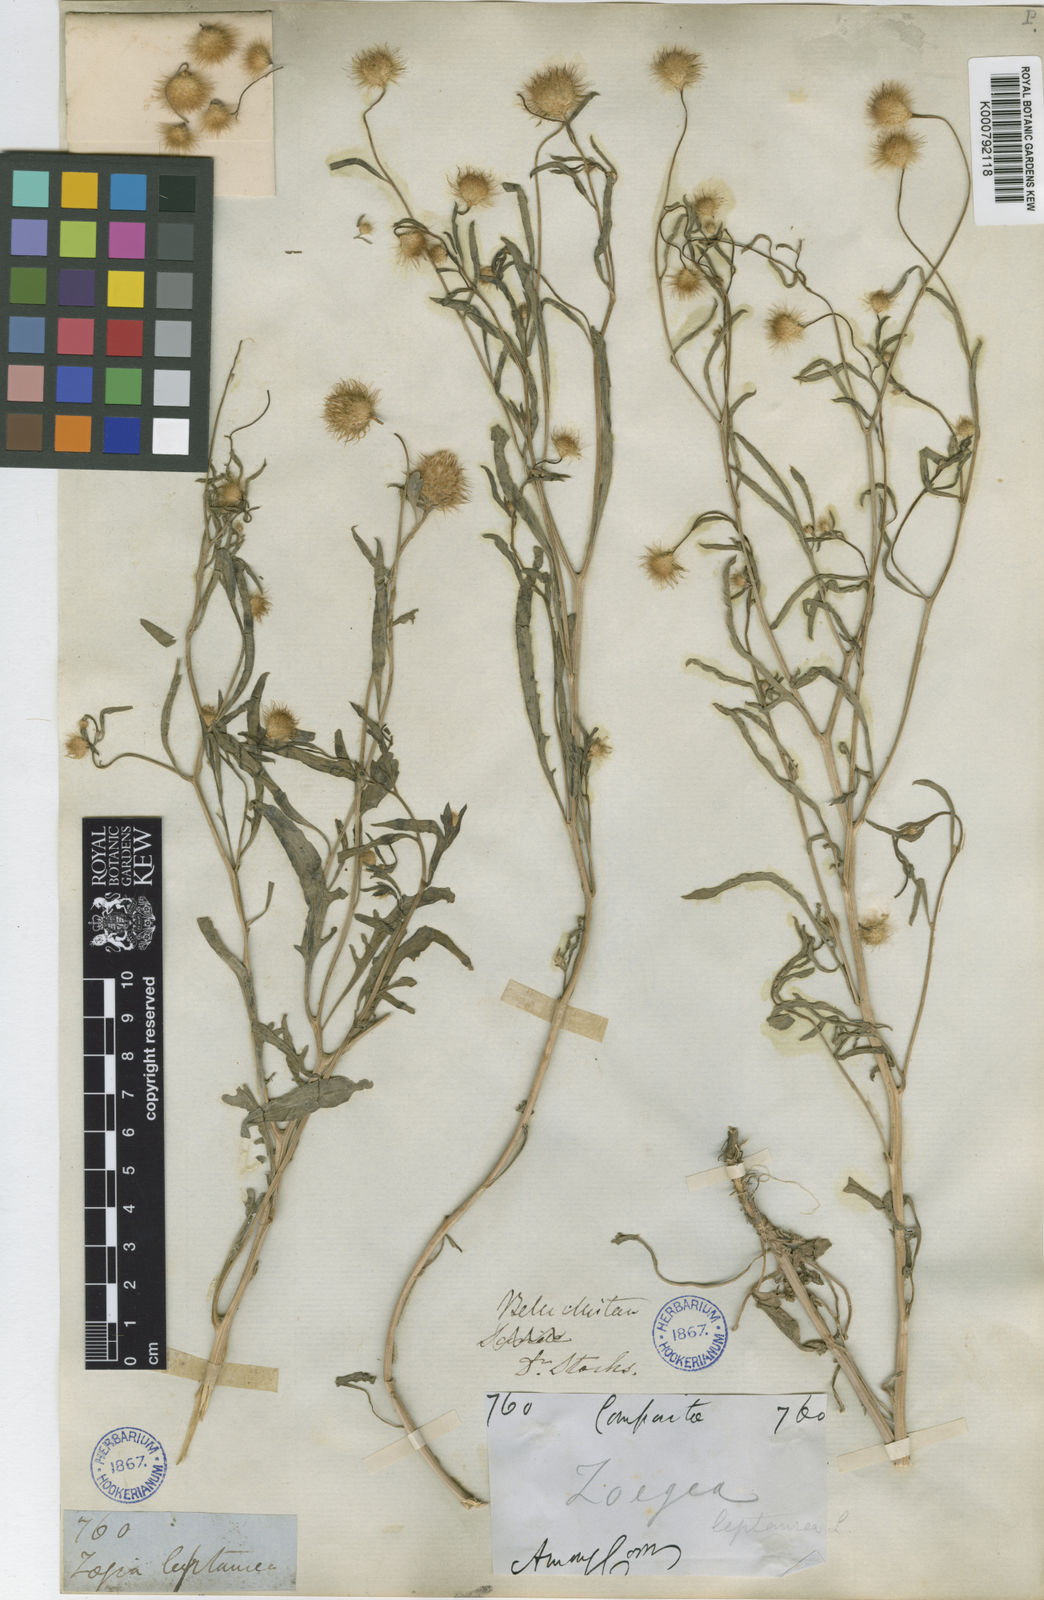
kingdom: Plantae
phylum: Tracheophyta
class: Magnoliopsida
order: Asterales
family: Asteraceae
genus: Zoegea
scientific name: Zoegea crinita
